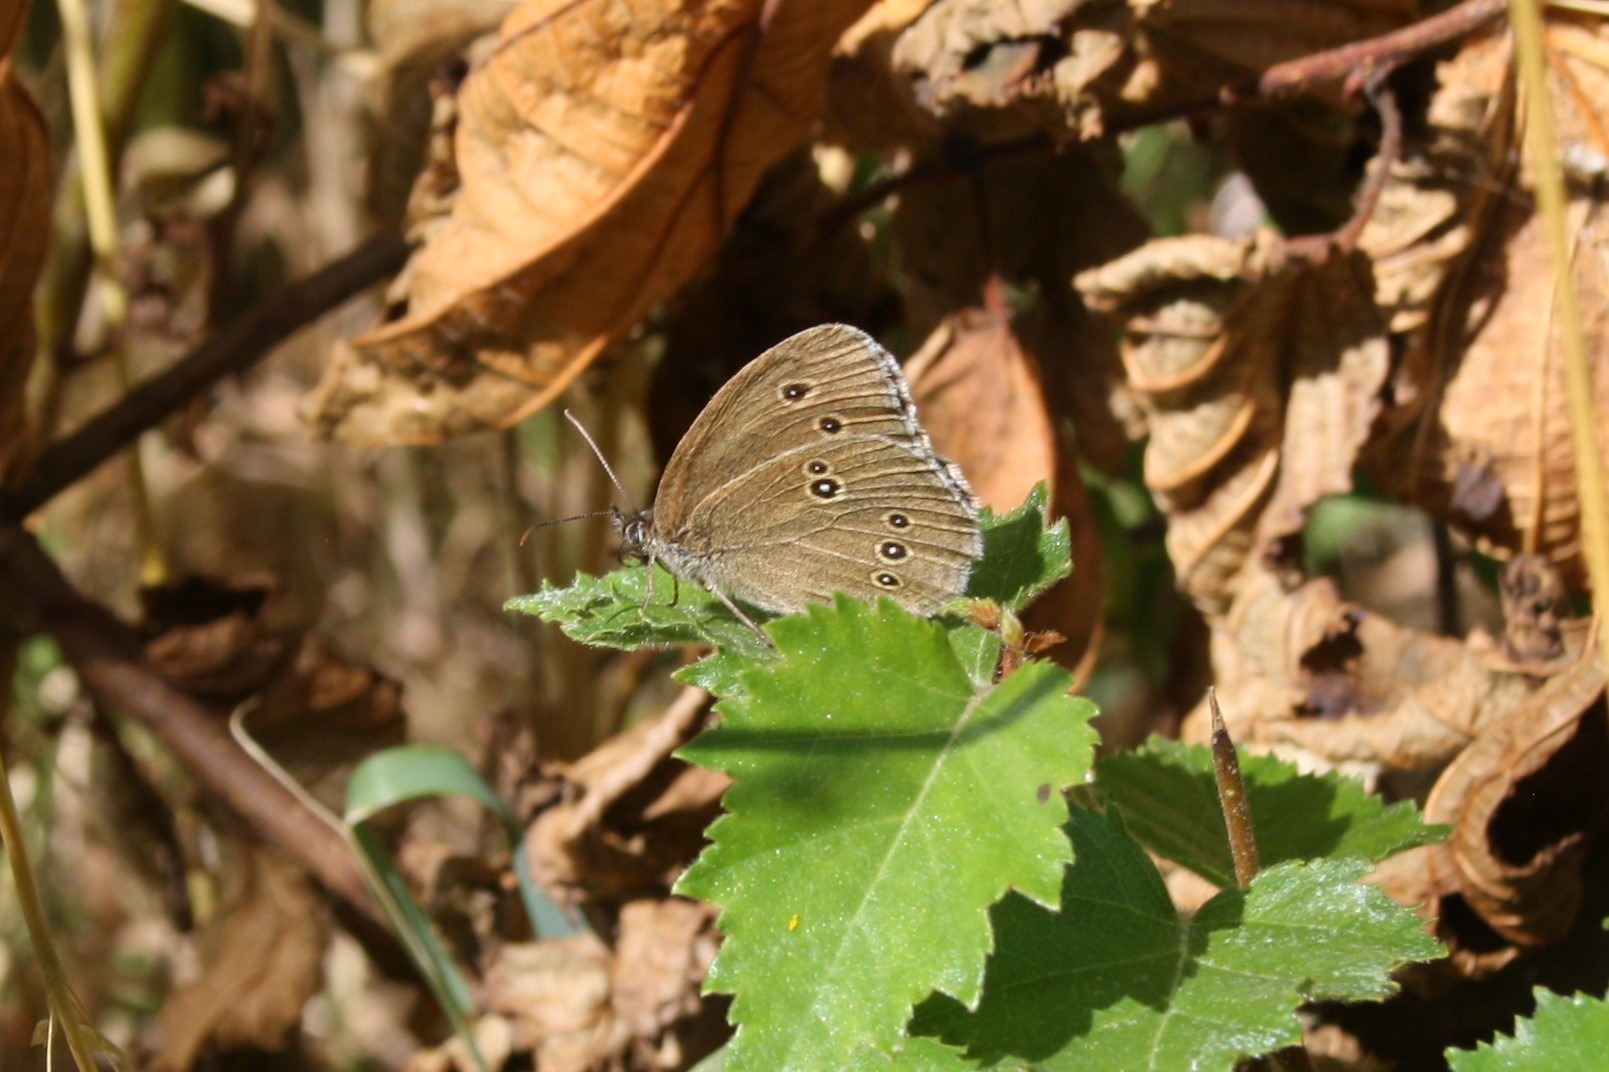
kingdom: Animalia
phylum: Arthropoda
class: Insecta
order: Lepidoptera
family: Nymphalidae
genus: Aphantopus
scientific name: Aphantopus hyperantus
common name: Engrandøje
